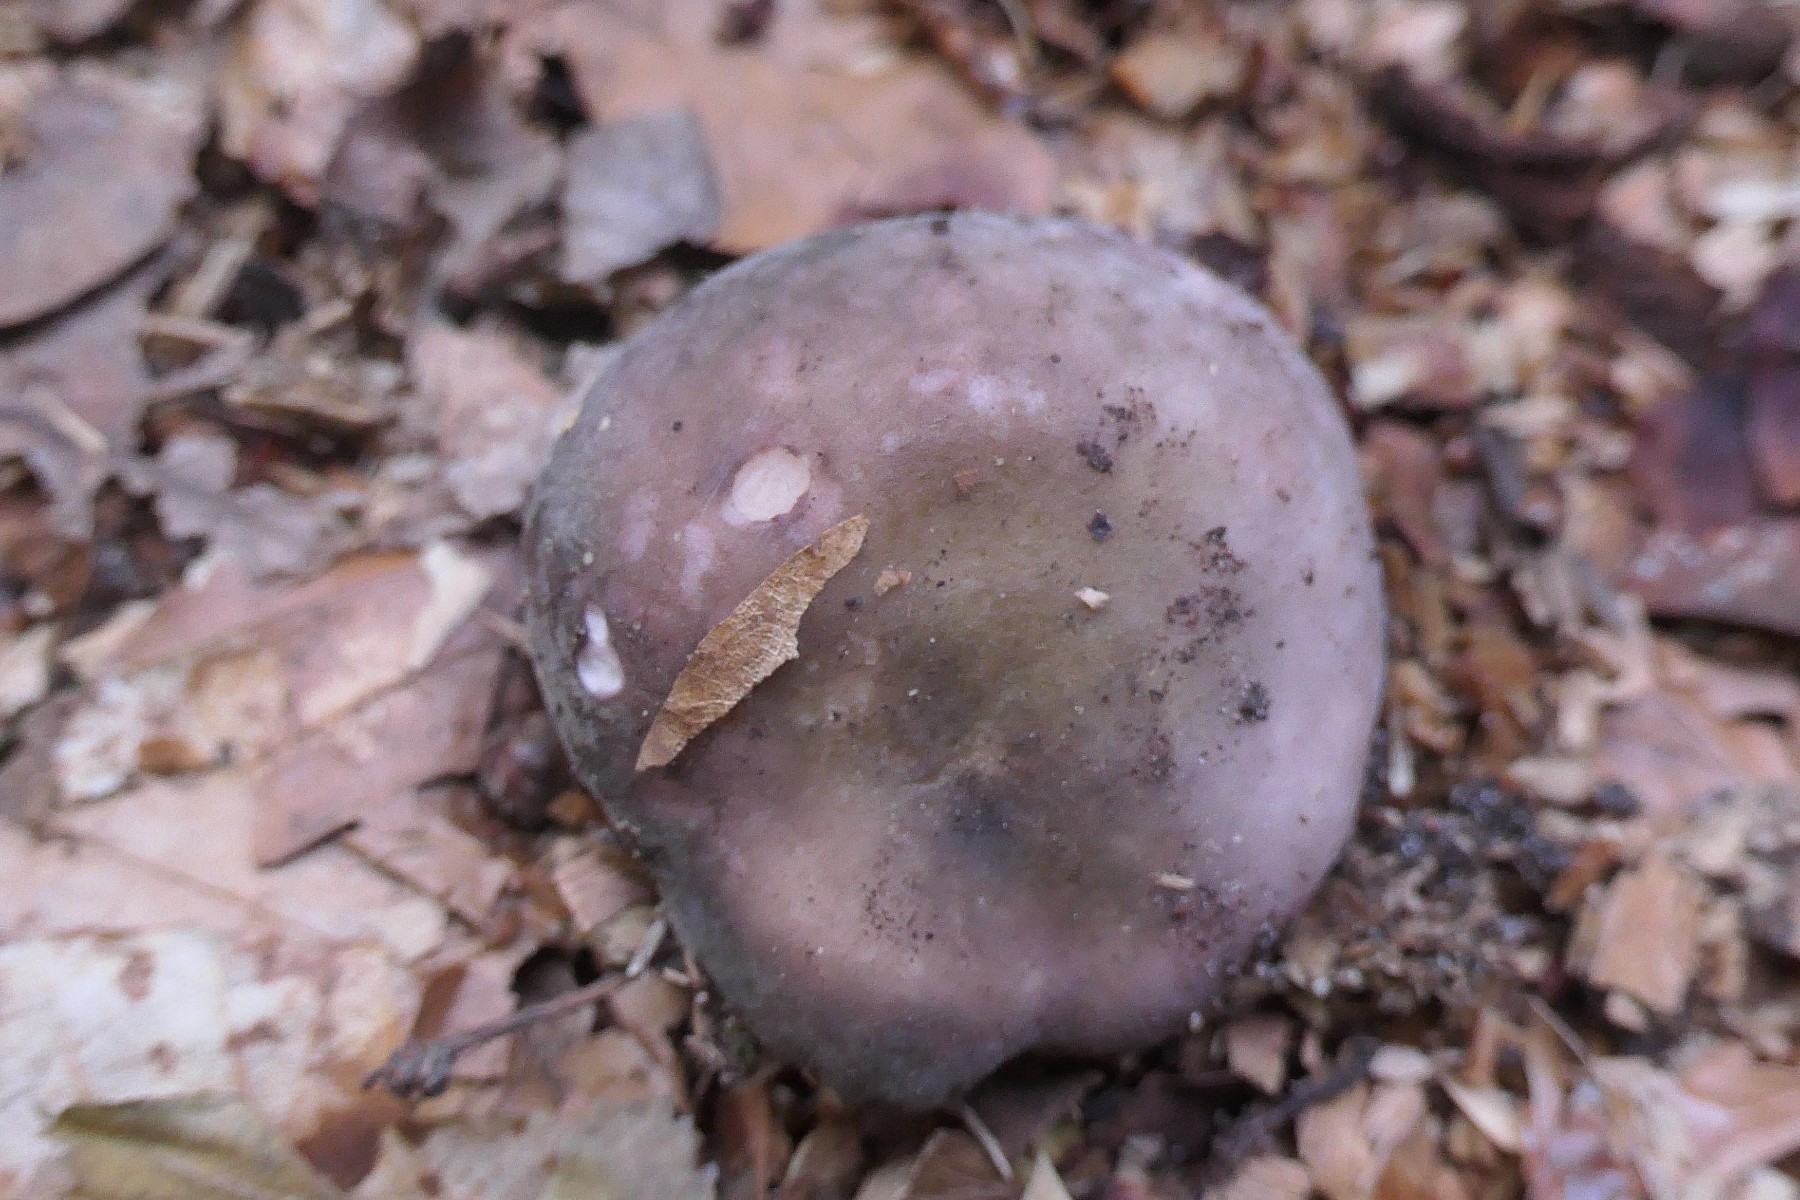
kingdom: Fungi
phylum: Basidiomycota
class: Agaricomycetes
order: Russulales
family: Russulaceae
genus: Russula
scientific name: Russula ionochlora
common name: violetgrøn skørhat
